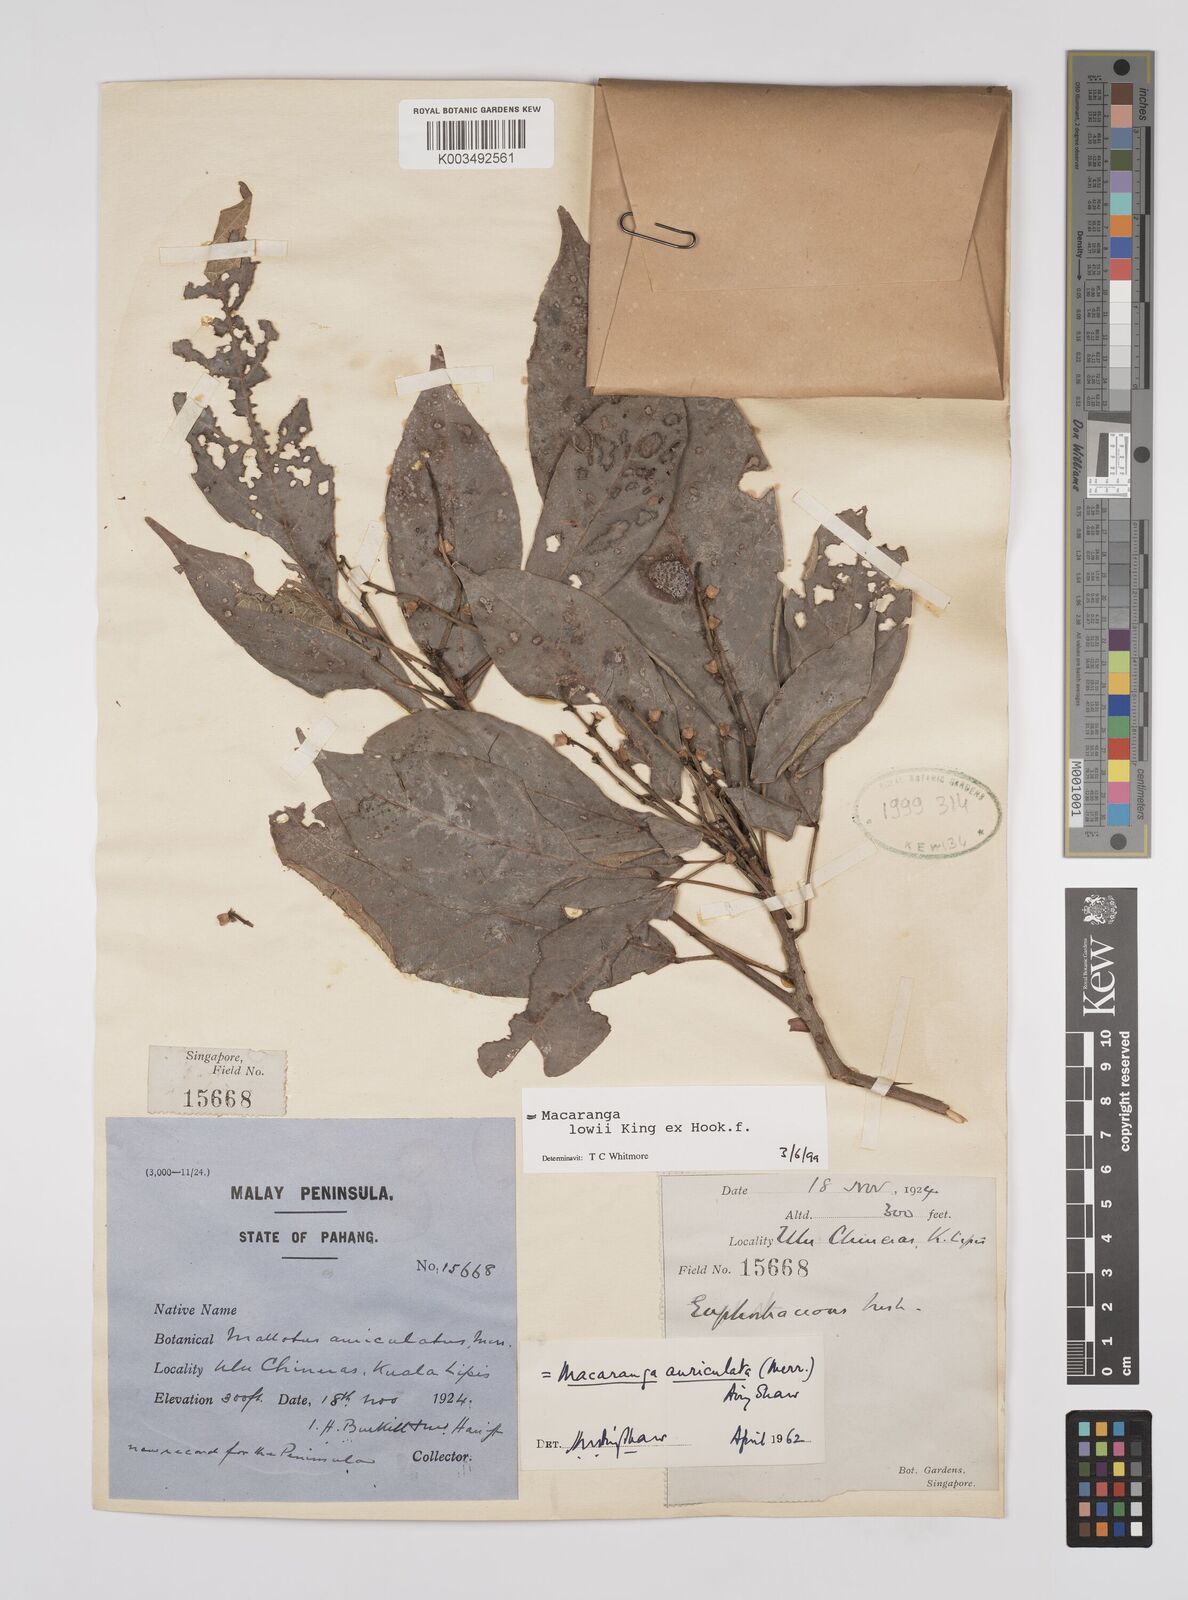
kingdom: Plantae
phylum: Tracheophyta
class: Magnoliopsida
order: Malpighiales
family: Euphorbiaceae
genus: Macaranga
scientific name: Macaranga lowii
